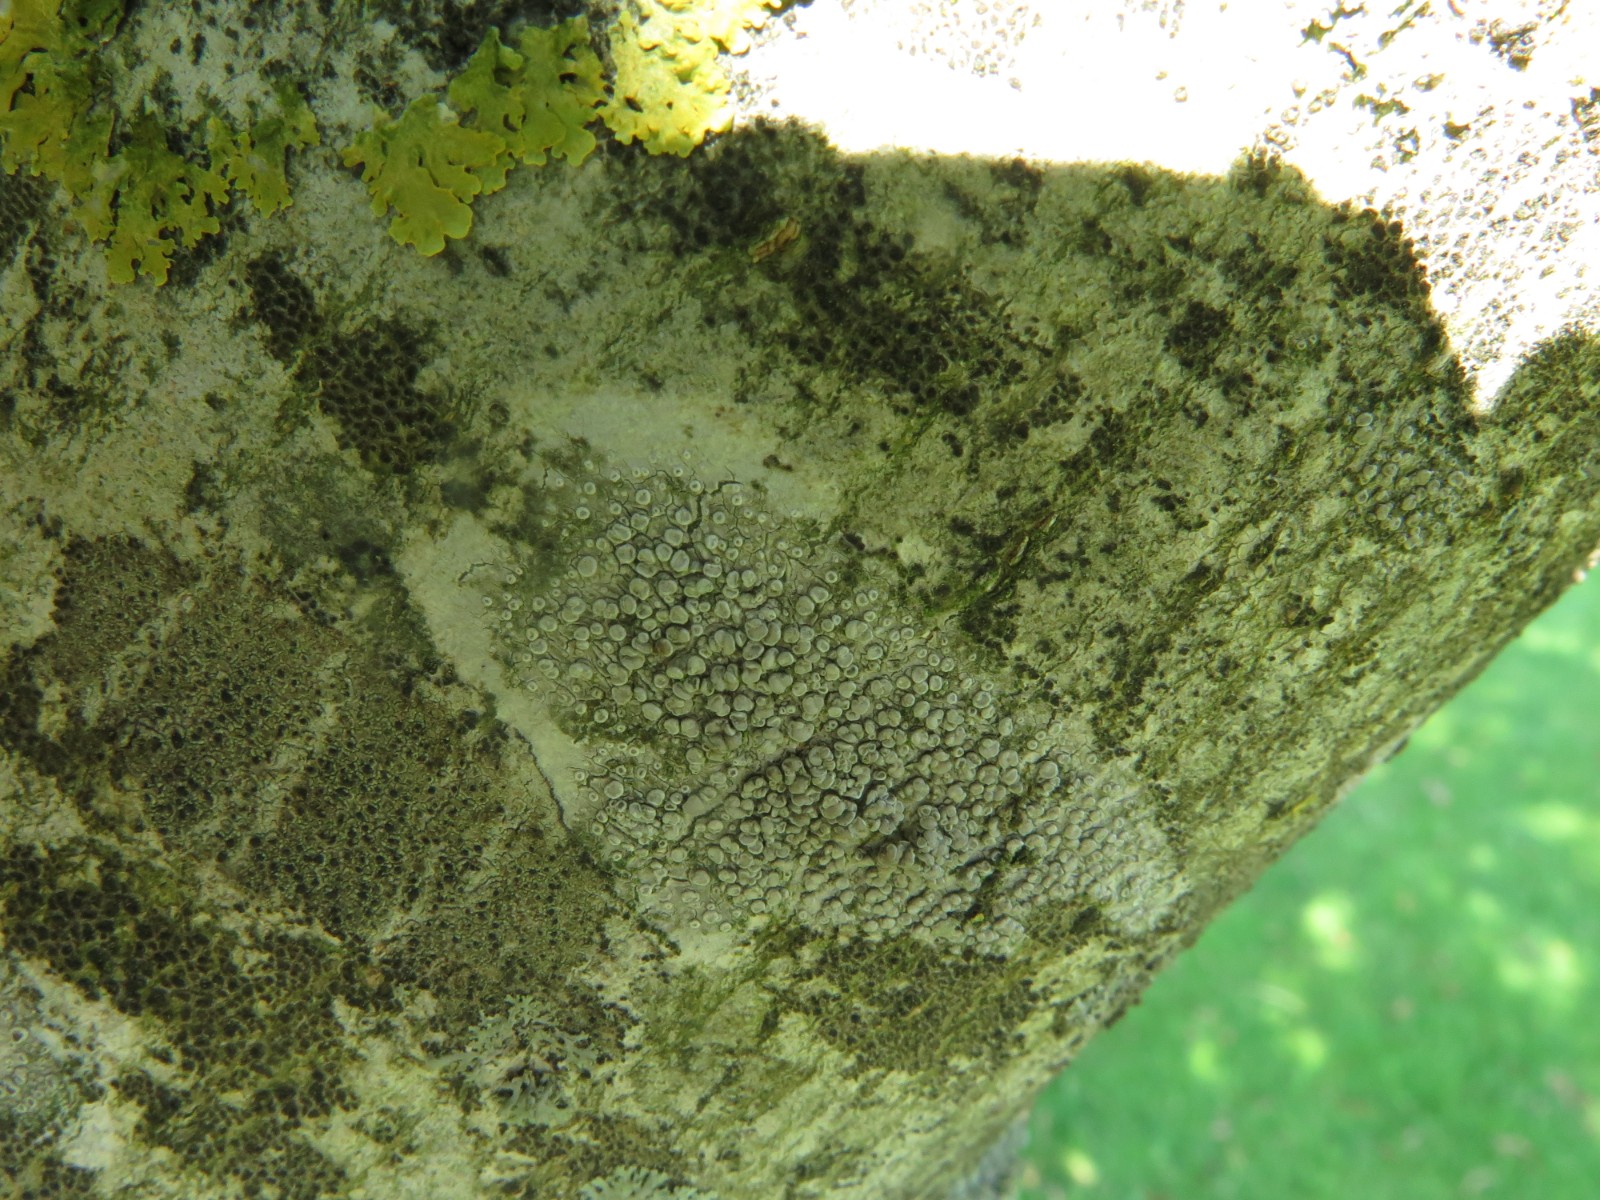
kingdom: Fungi
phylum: Ascomycota
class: Lecanoromycetes
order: Lecanorales
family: Lecanoraceae
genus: Glaucomaria
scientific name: Glaucomaria carpinea
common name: hviddugget kantskivelav
